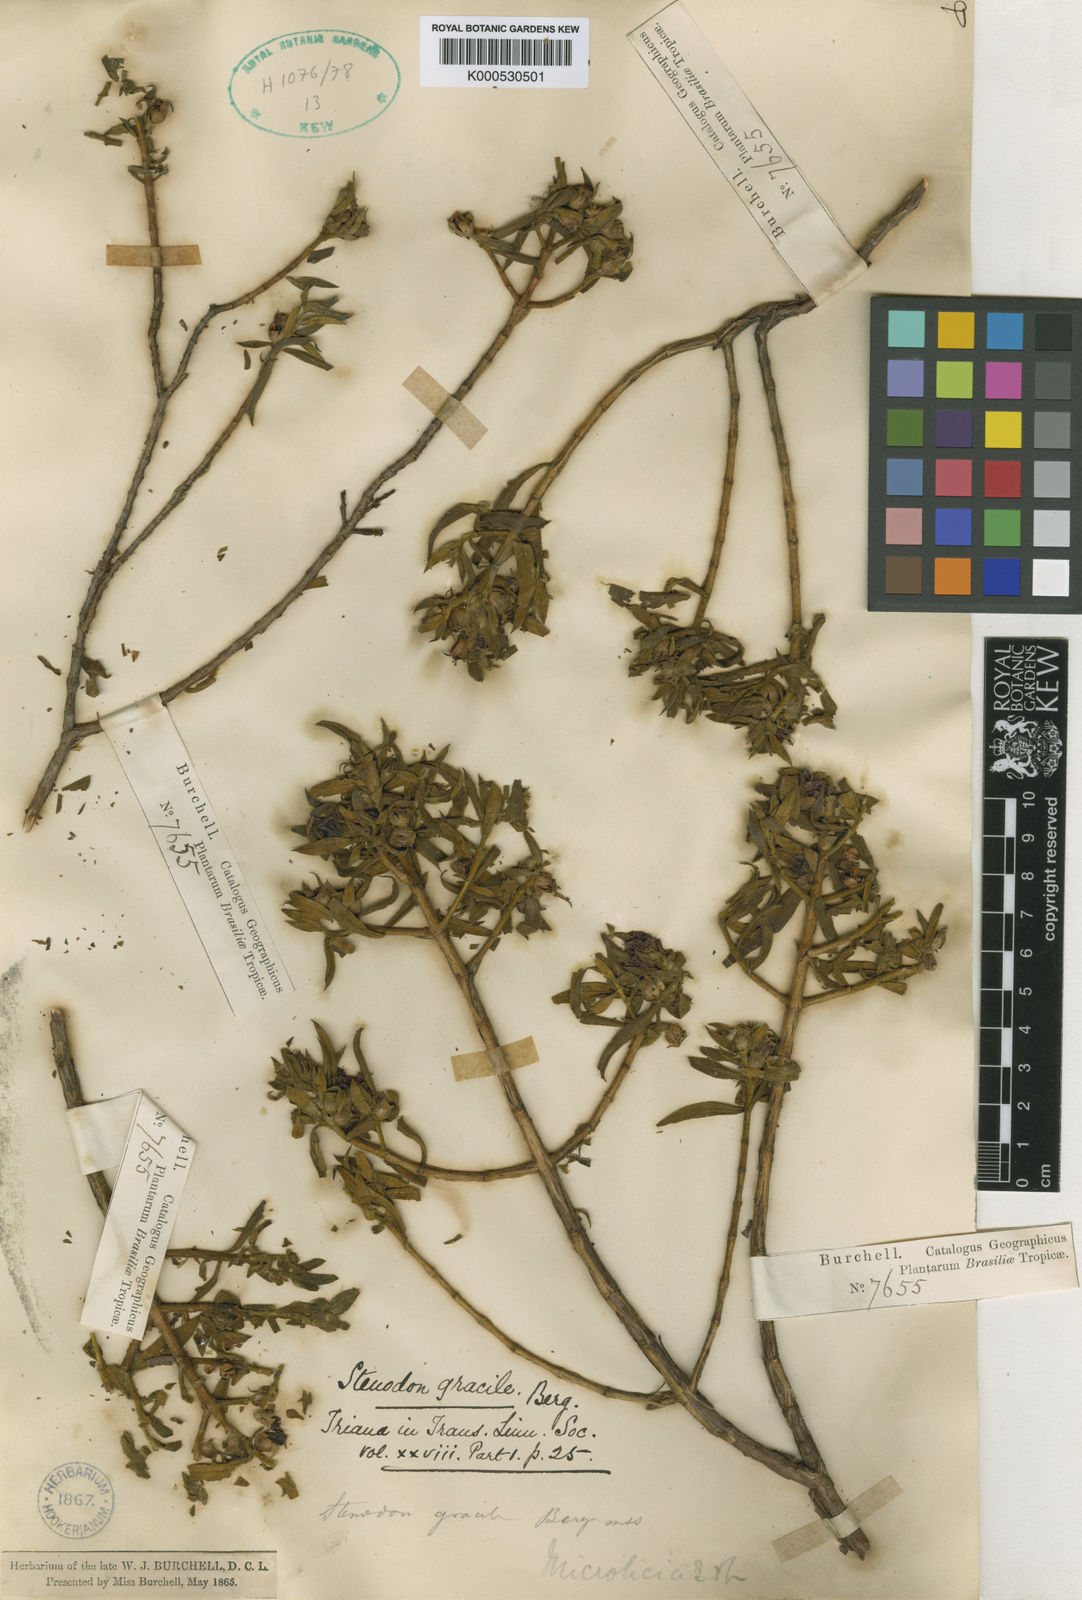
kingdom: Plantae
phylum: Tracheophyta
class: Magnoliopsida
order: Myrtales
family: Melastomataceae
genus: Microlicia
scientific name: Microlicia
